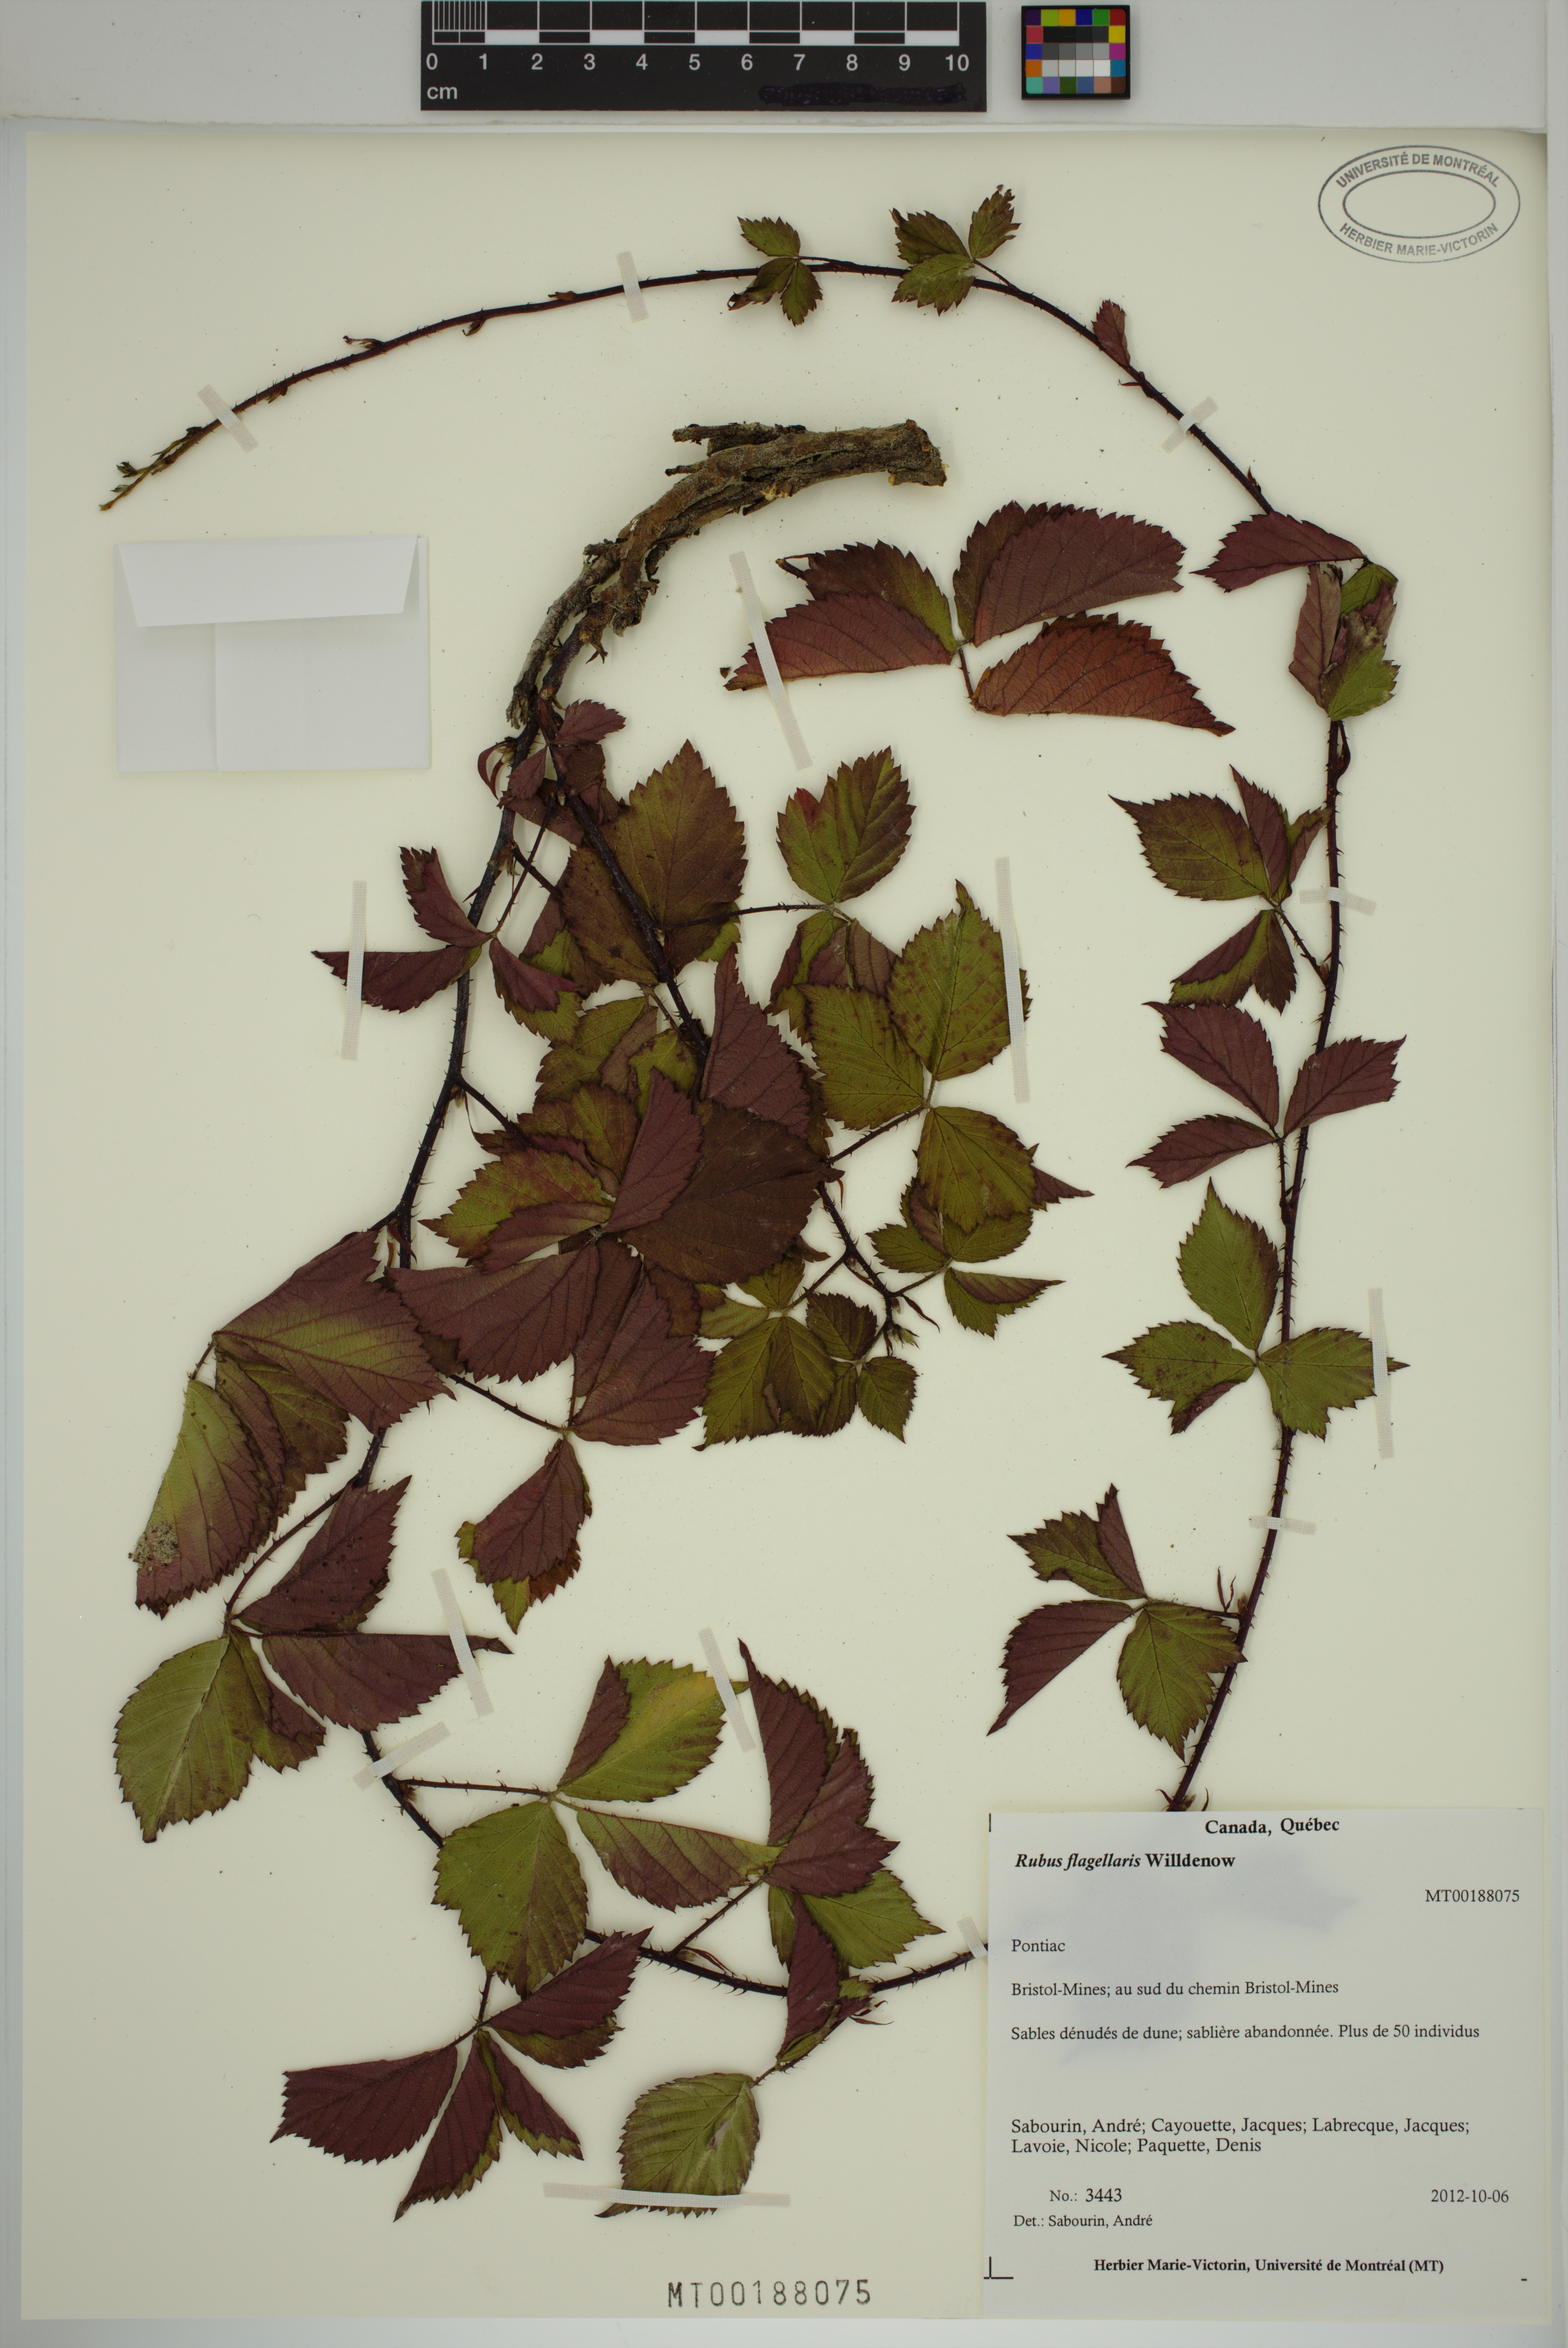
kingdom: Plantae
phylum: Tracheophyta
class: Magnoliopsida
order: Rosales
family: Rosaceae
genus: Rubus
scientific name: Rubus flagellaris
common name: American dewberry
